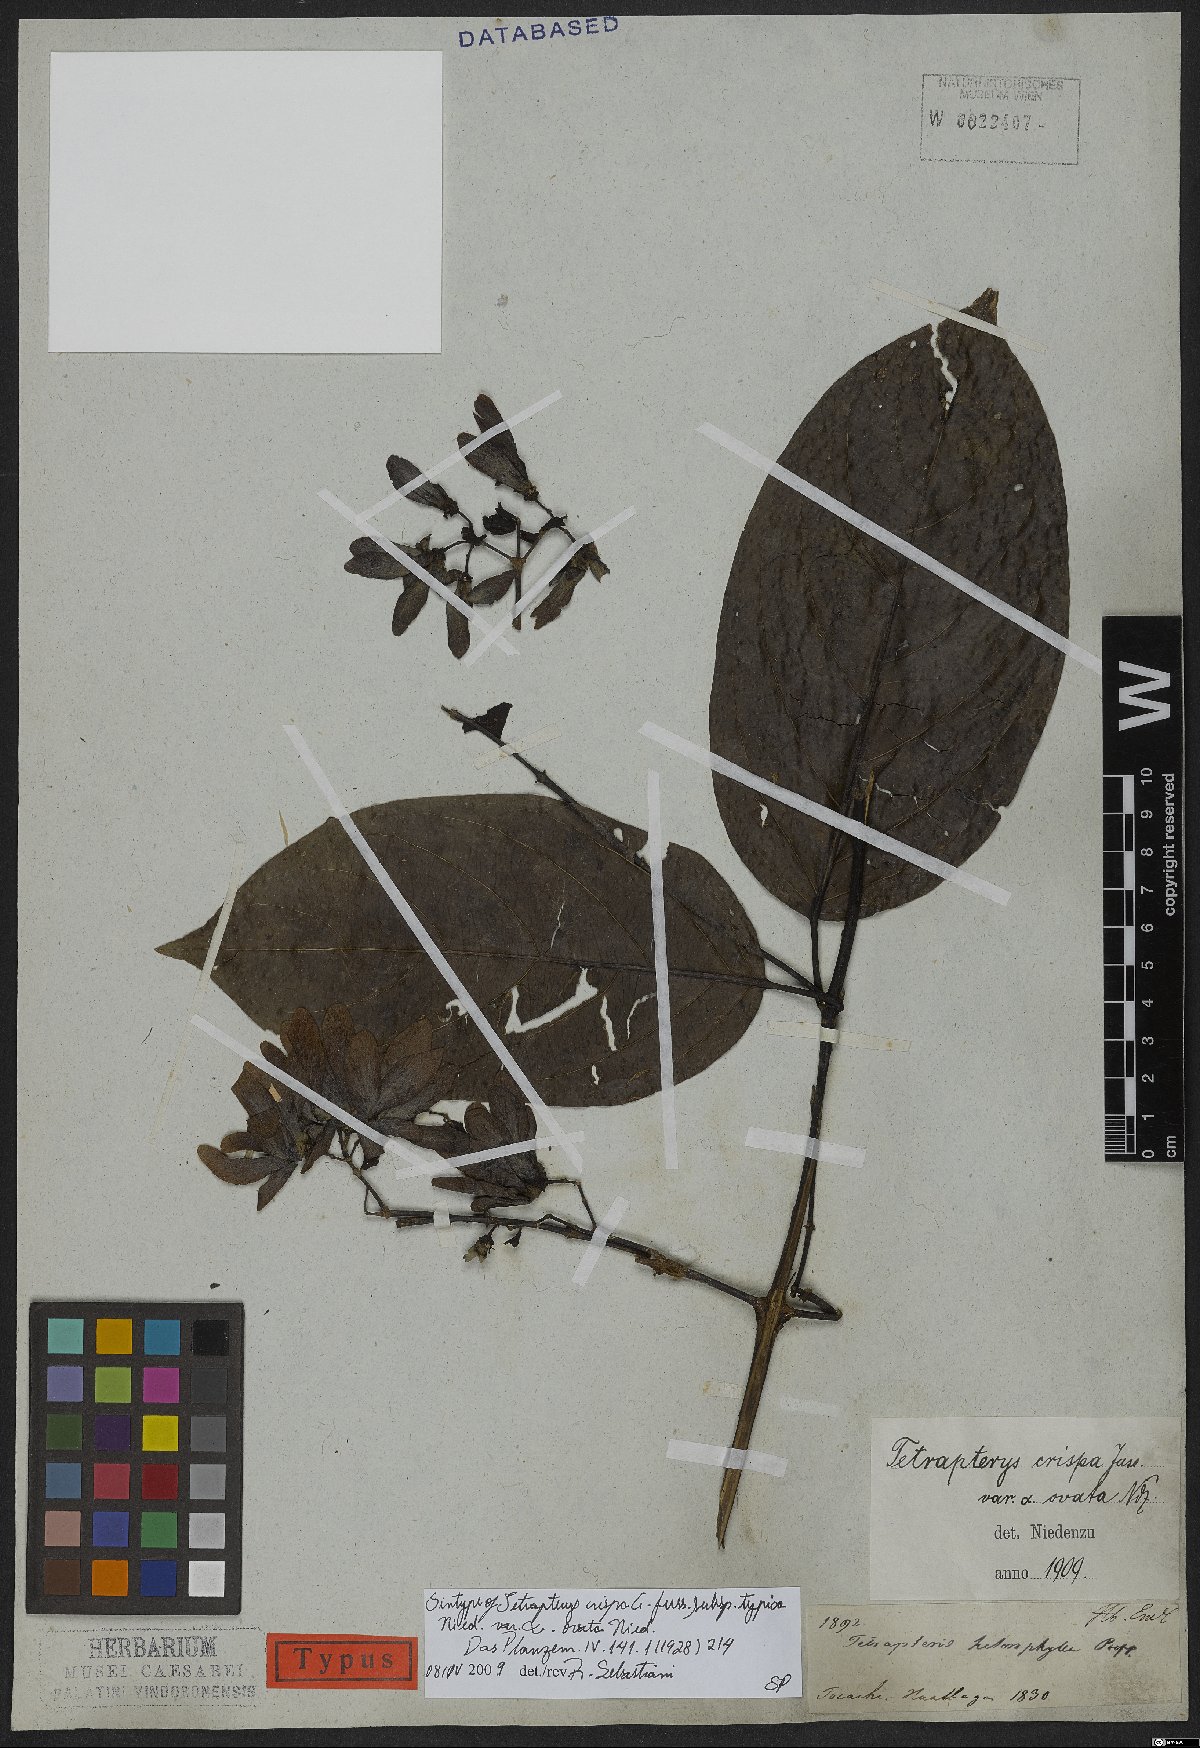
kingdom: Plantae
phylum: Tracheophyta
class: Magnoliopsida
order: Malpighiales
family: Malpighiaceae
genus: Tetrapterys
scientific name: Tetrapterys crispa
